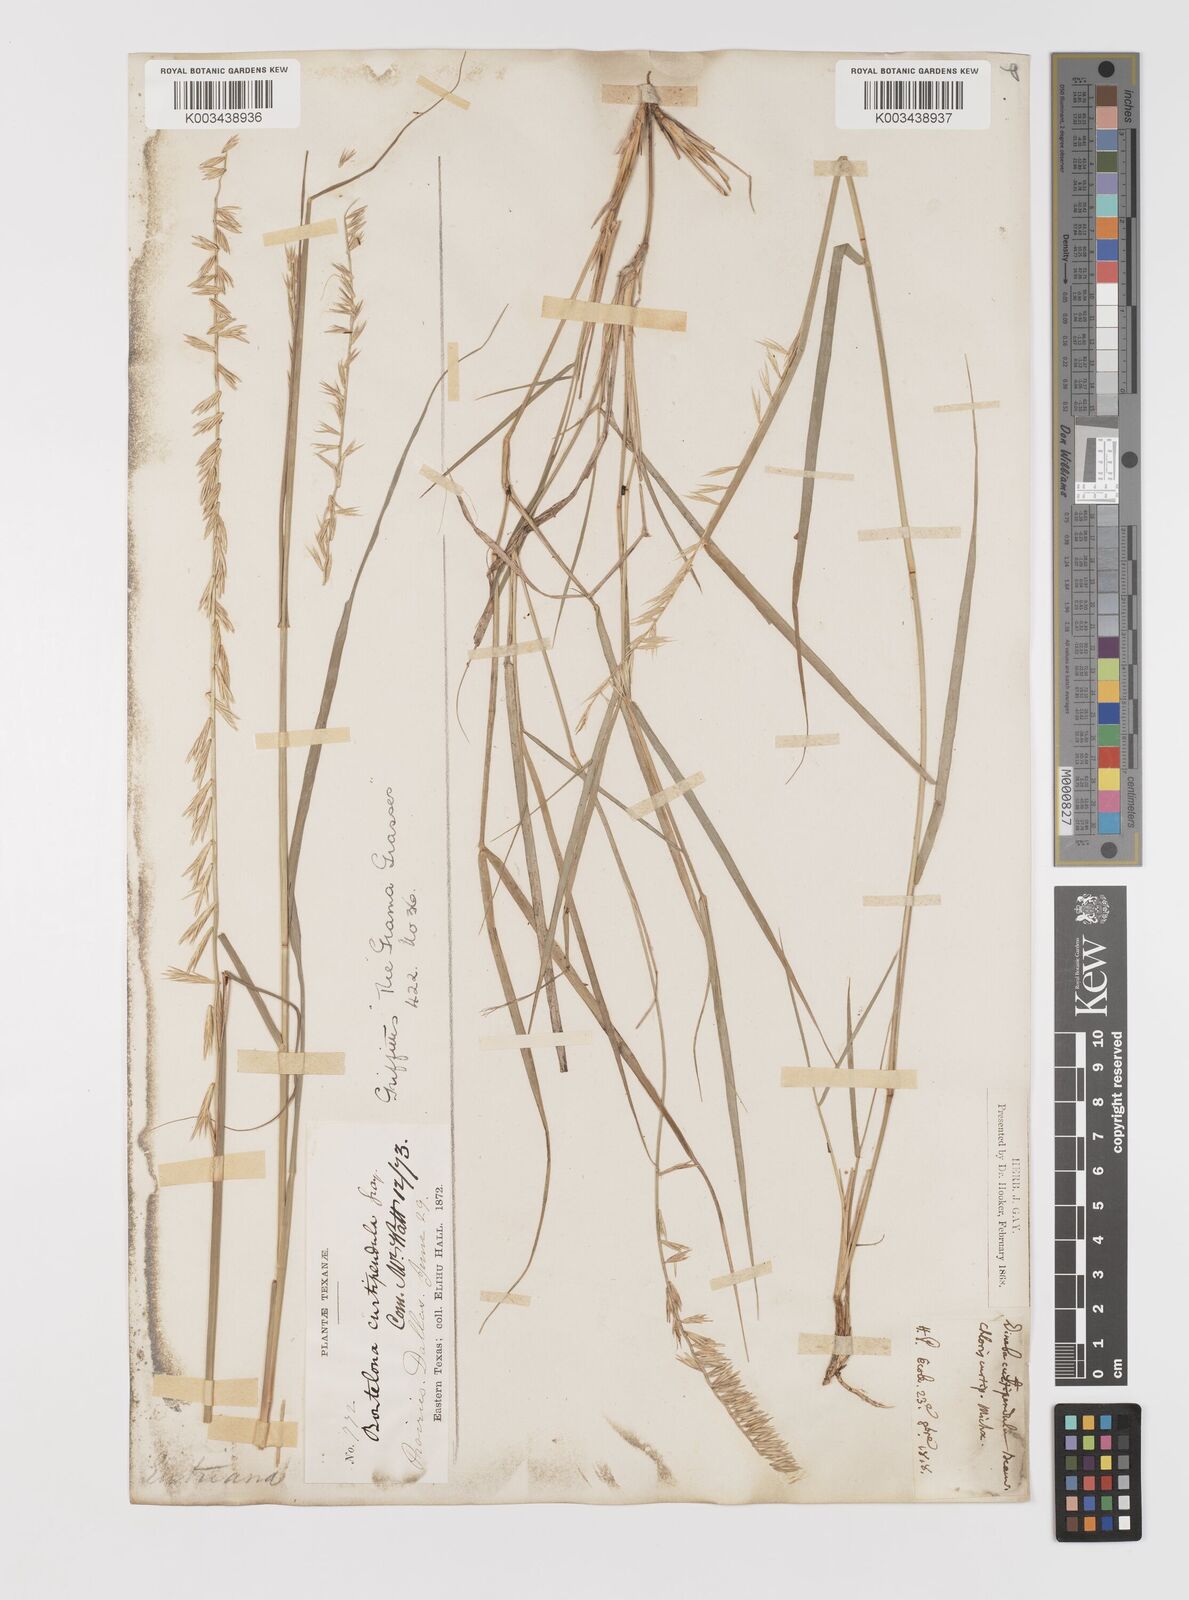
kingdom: Plantae
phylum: Tracheophyta
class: Liliopsida
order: Poales
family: Poaceae
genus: Bouteloua
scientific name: Bouteloua curtipendula
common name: Side-oats grama
